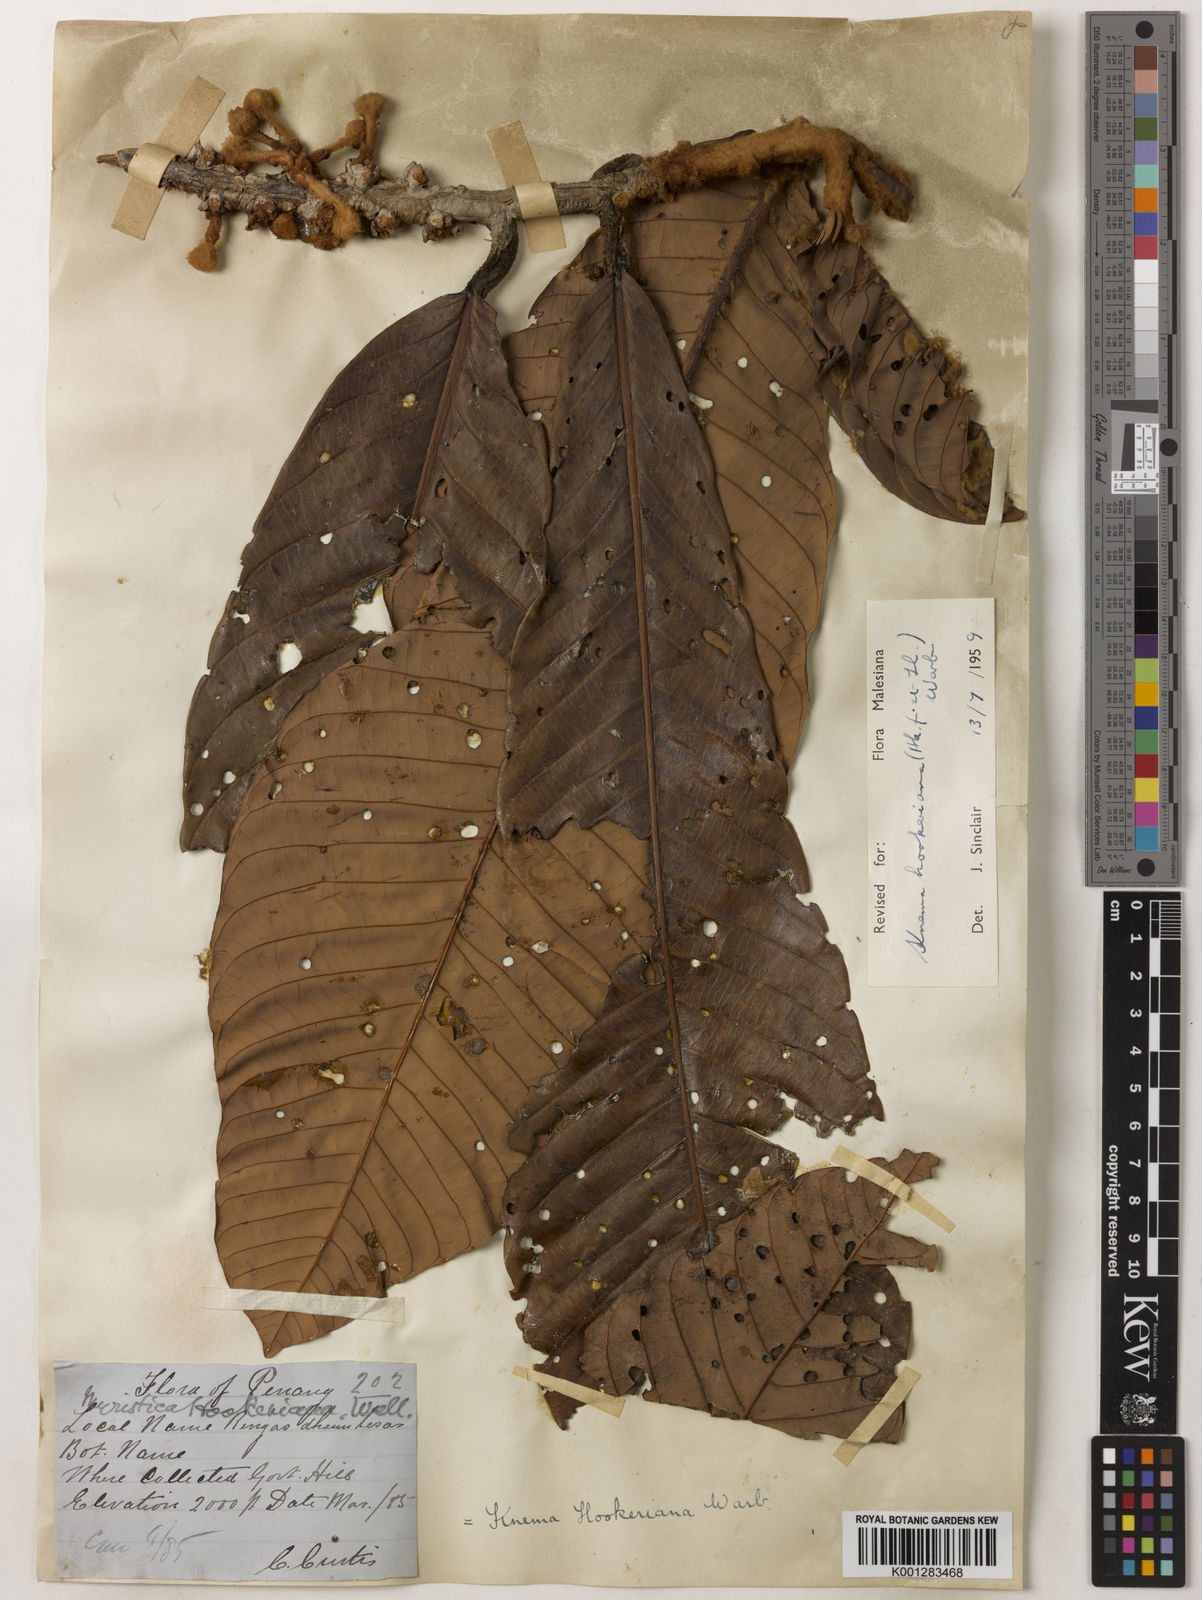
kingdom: Plantae
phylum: Tracheophyta
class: Magnoliopsida
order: Magnoliales
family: Myristicaceae
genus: Knema
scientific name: Knema hookeriana
